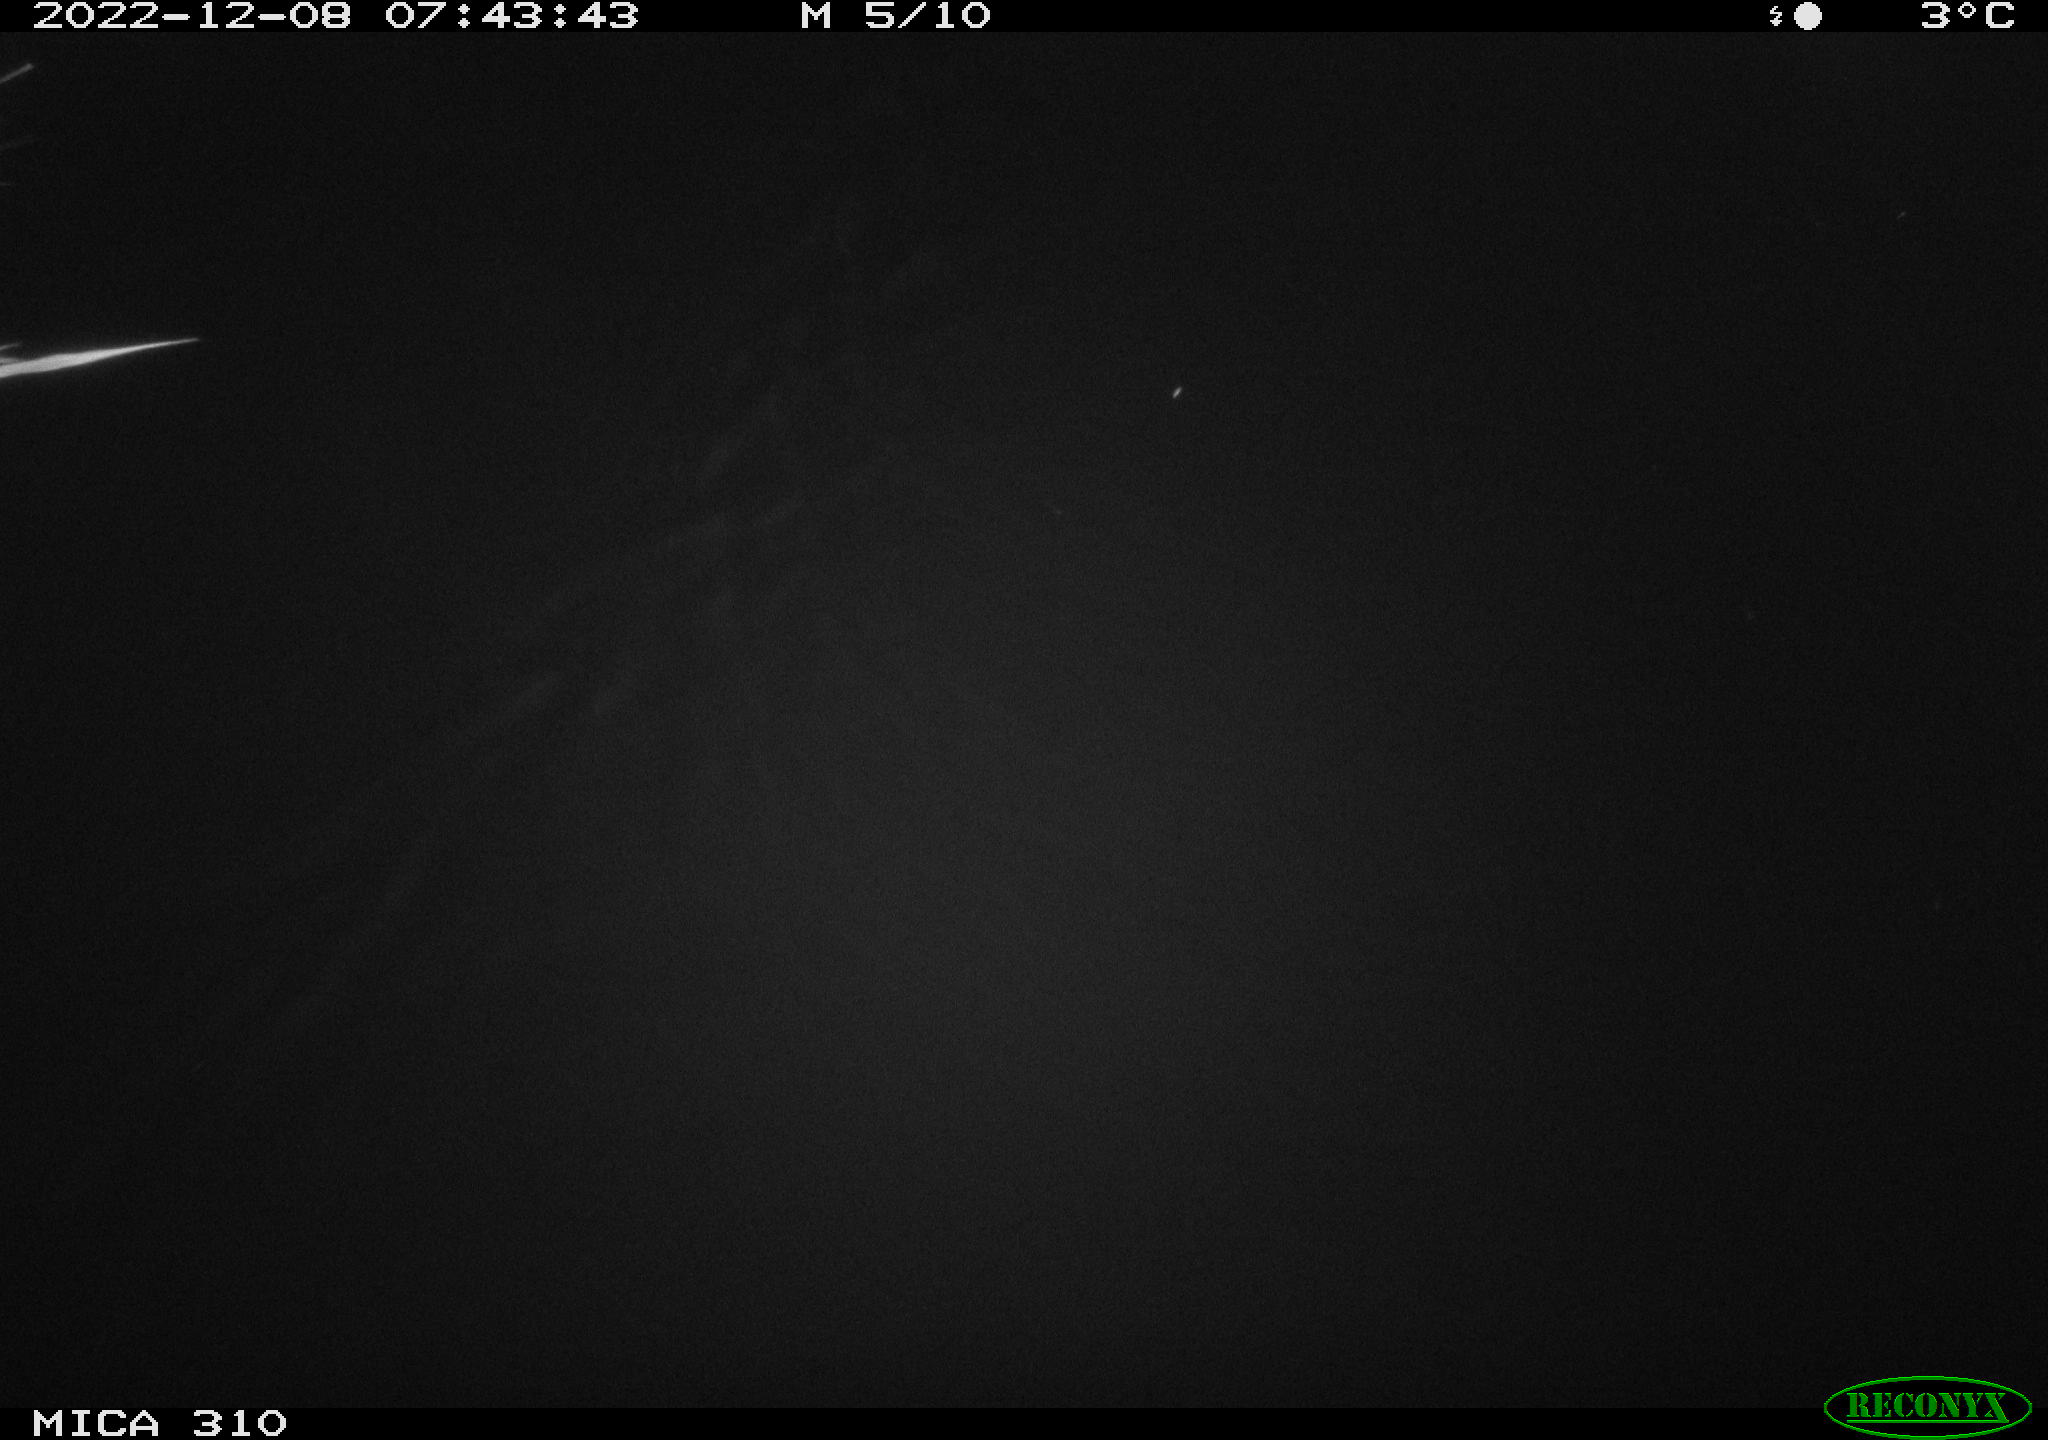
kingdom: Animalia
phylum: Chordata
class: Mammalia
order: Rodentia
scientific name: Rodentia
